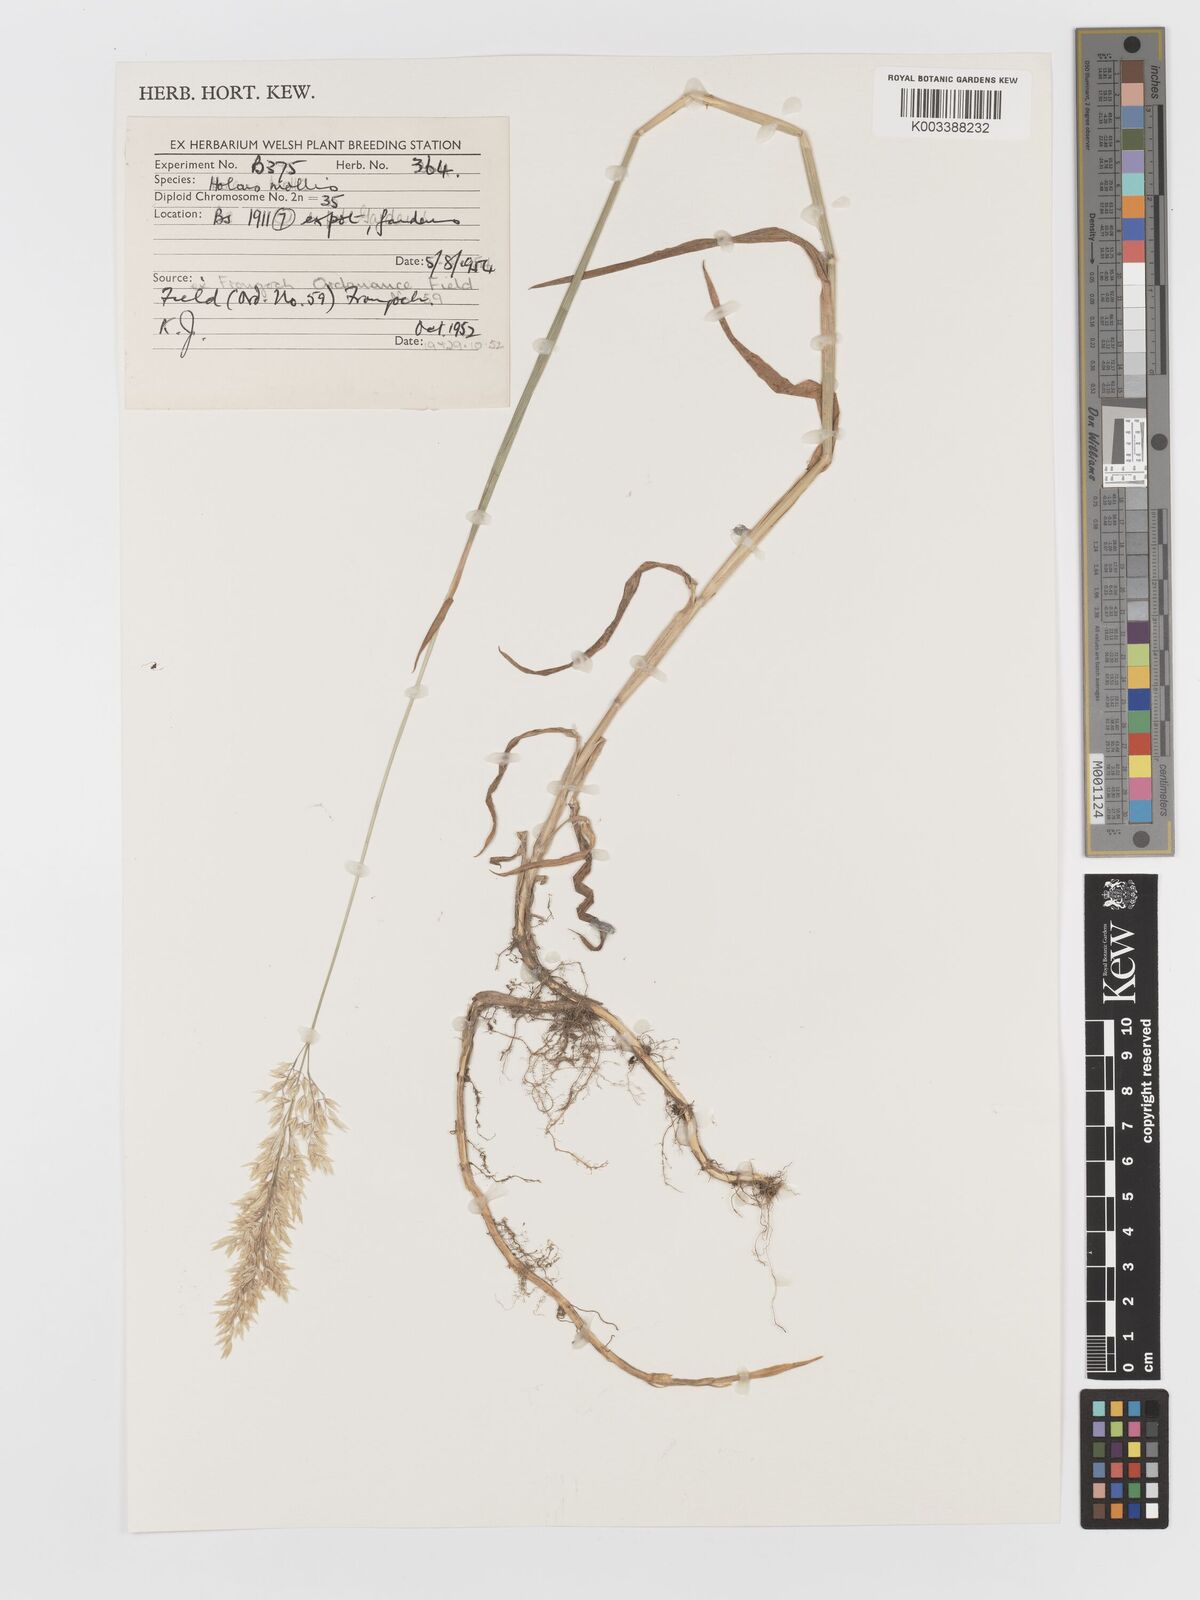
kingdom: Plantae
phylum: Tracheophyta
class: Liliopsida
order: Poales
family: Poaceae
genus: Holcus
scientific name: Holcus hierrensis
